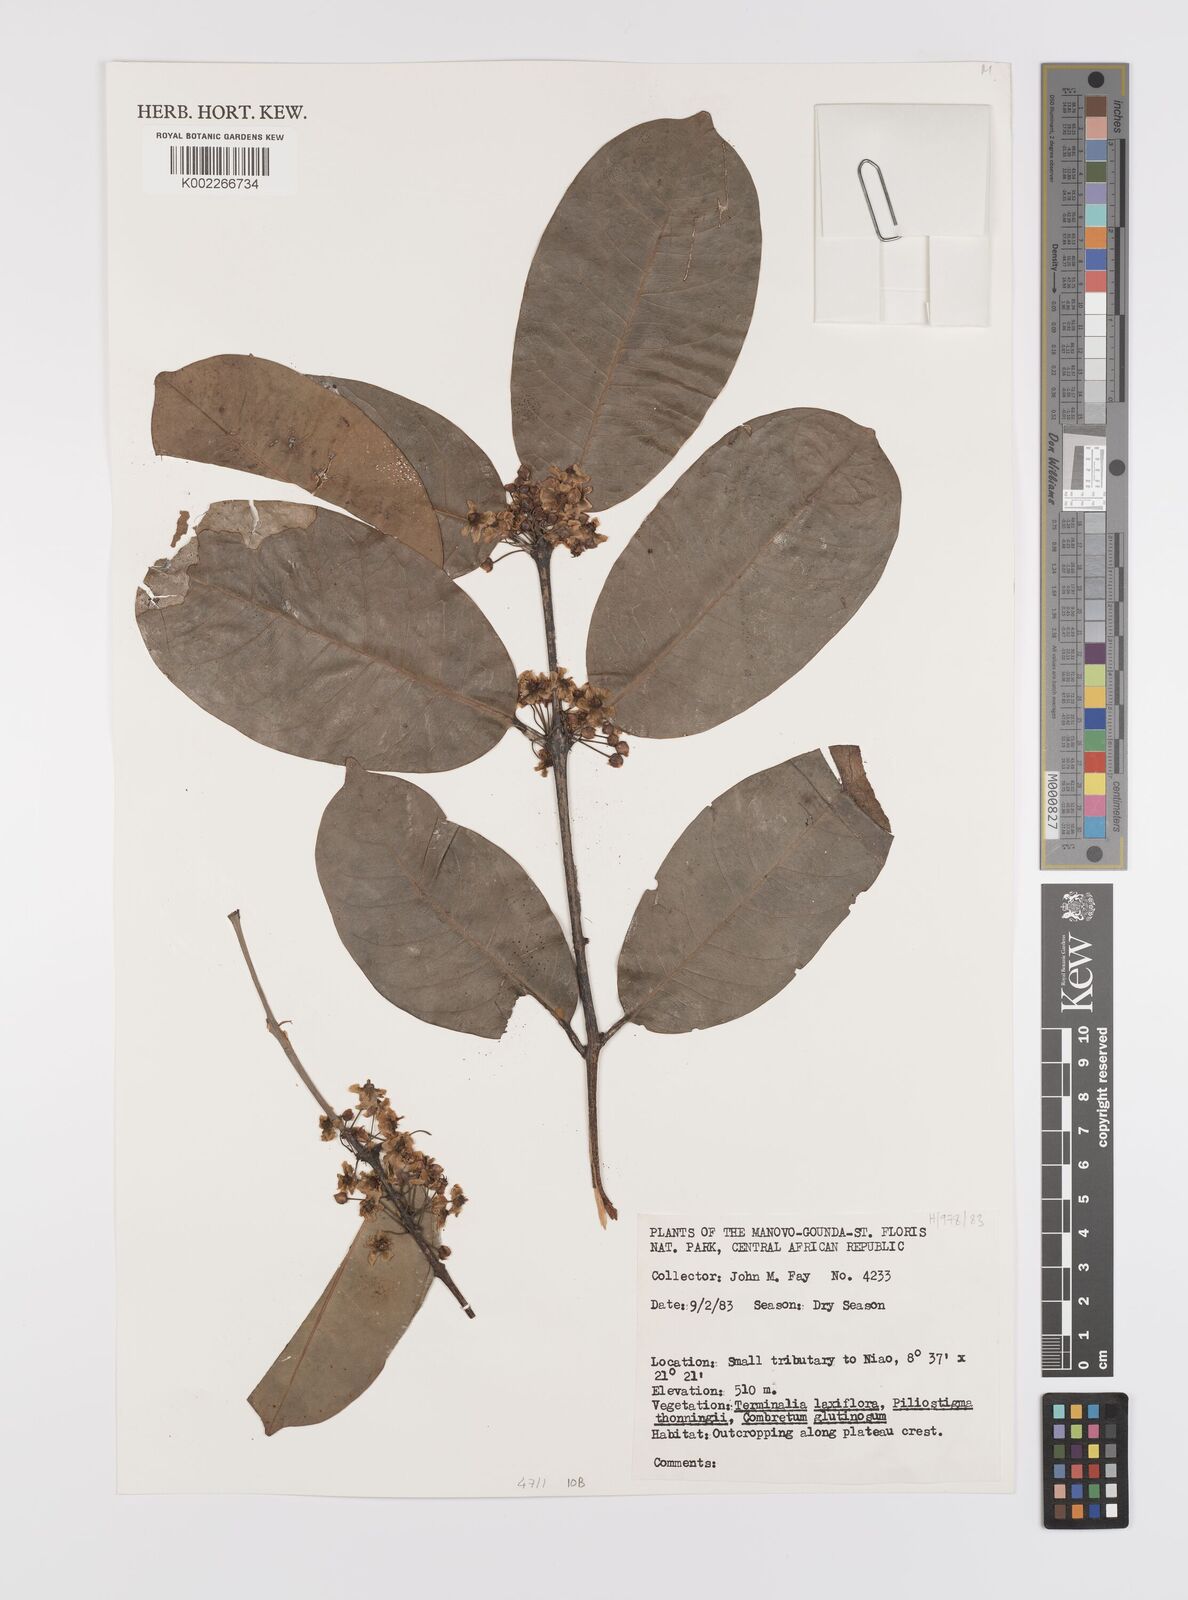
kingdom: Plantae
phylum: Tracheophyta
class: Magnoliopsida
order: Celastrales
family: Celastraceae
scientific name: Celastraceae
